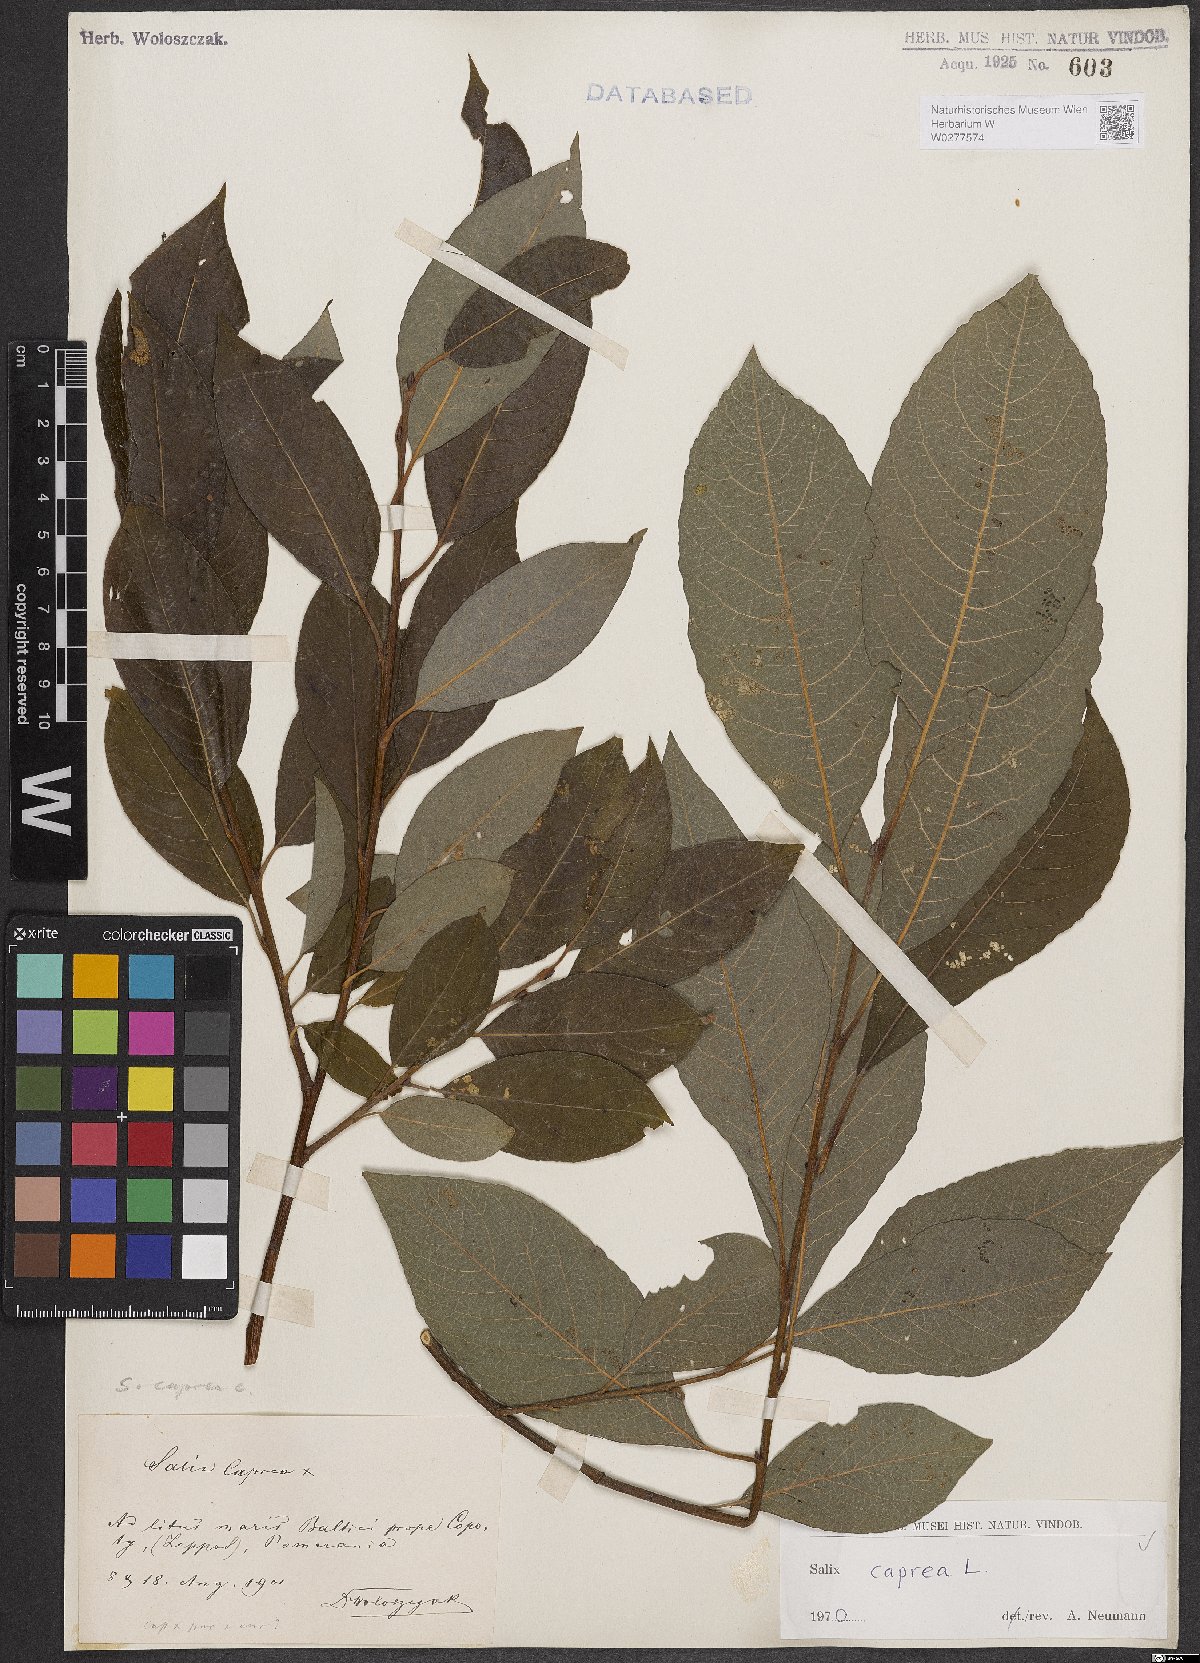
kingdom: Plantae
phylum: Tracheophyta
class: Magnoliopsida
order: Malpighiales
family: Salicaceae
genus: Salix
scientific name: Salix caprea
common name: Goat willow
